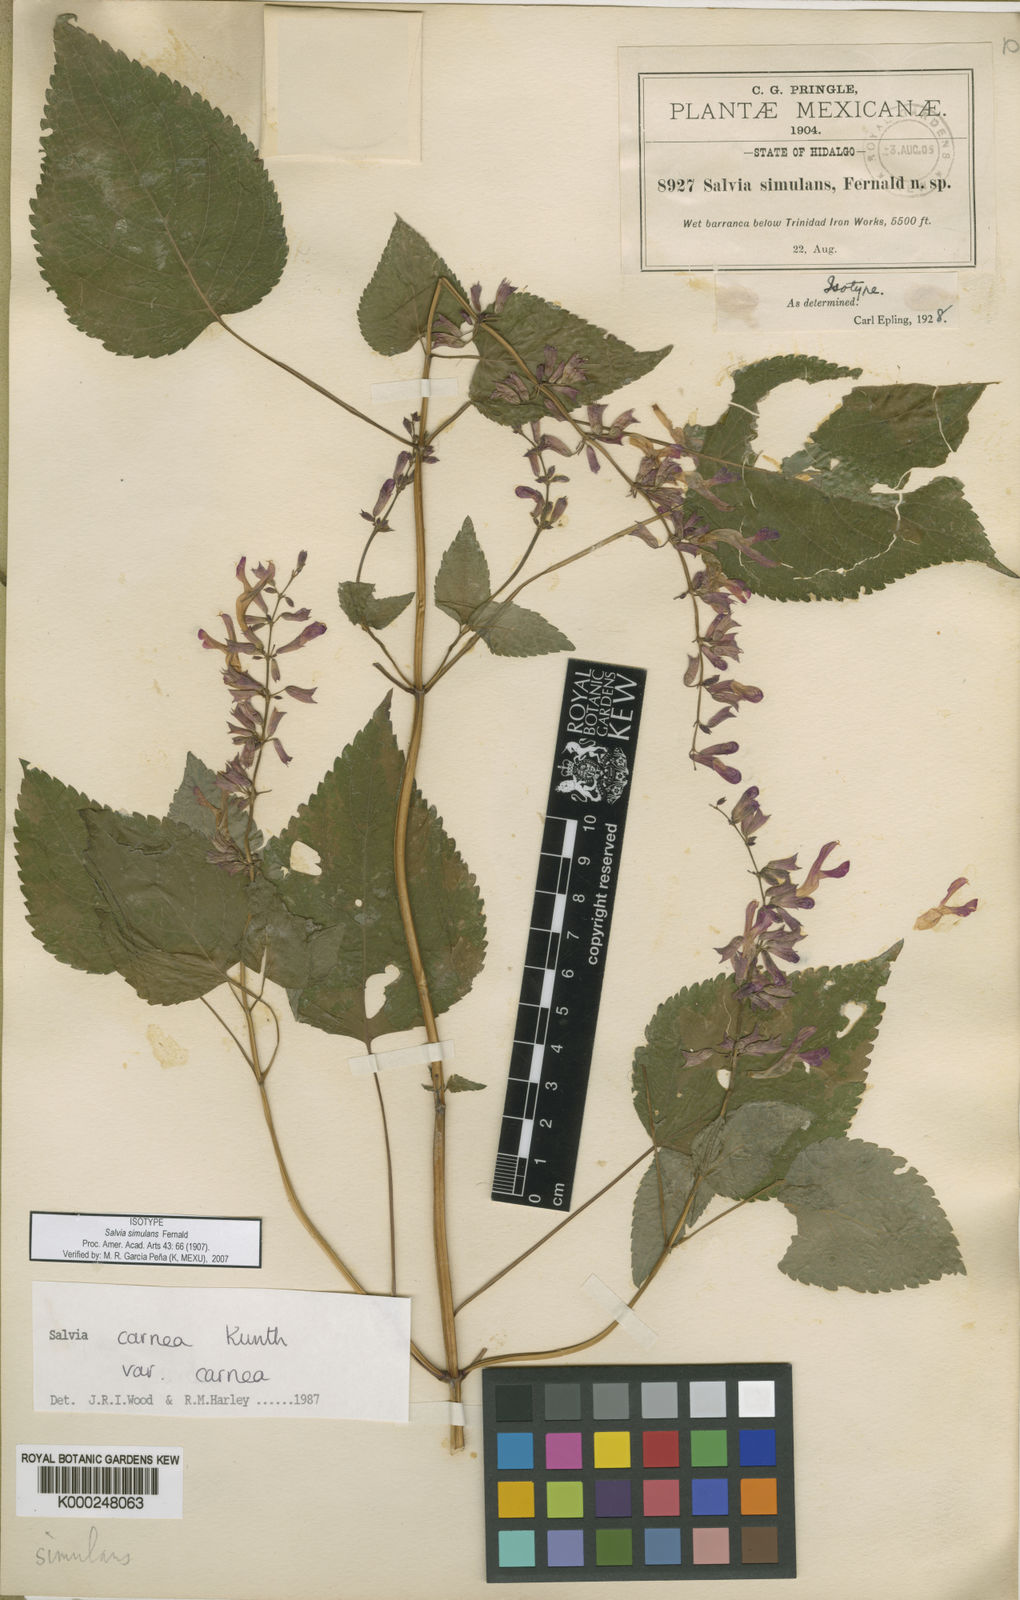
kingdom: Plantae
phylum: Tracheophyta
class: Magnoliopsida
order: Lamiales
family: Lamiaceae
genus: Salvia
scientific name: Salvia carnea
